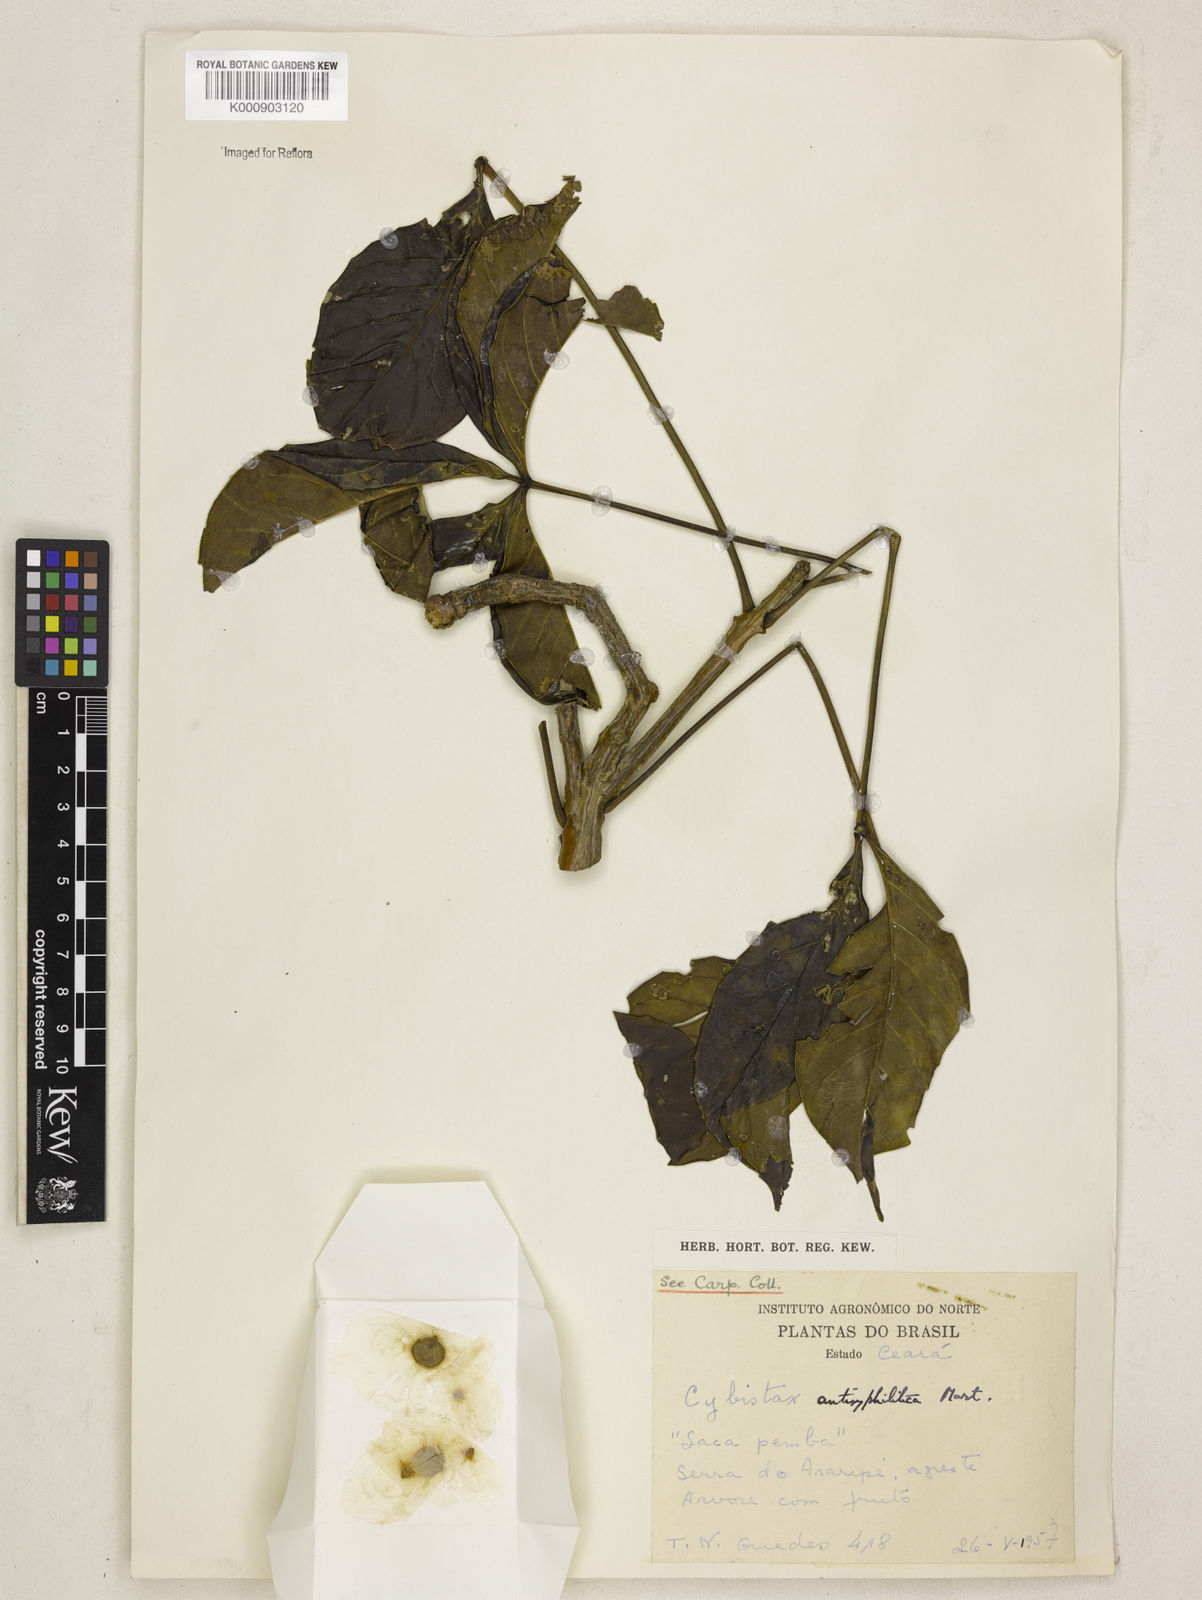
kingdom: Plantae
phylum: Tracheophyta
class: Magnoliopsida
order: Lamiales
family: Bignoniaceae
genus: Cybistax
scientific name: Cybistax antisyphilitica
